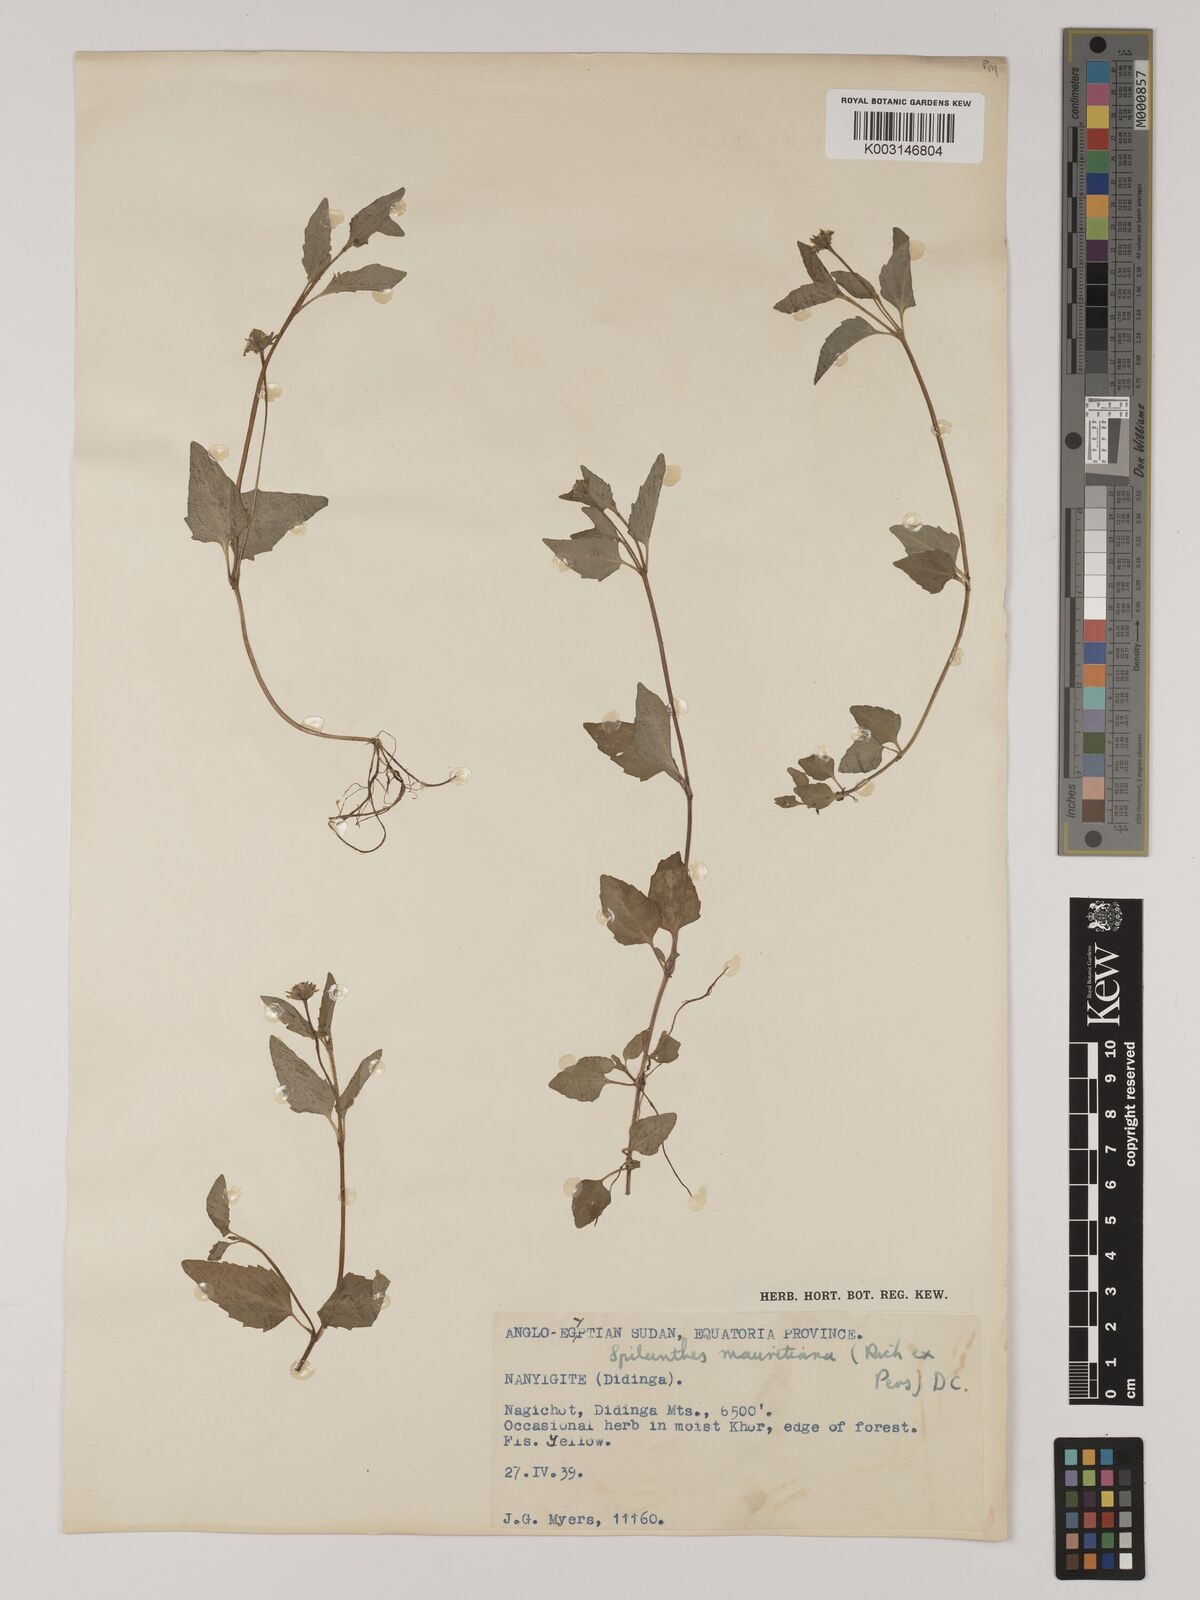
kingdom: Plantae
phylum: Tracheophyta
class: Magnoliopsida
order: Asterales
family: Asteraceae
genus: Blainvillea
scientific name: Blainvillea acmella
